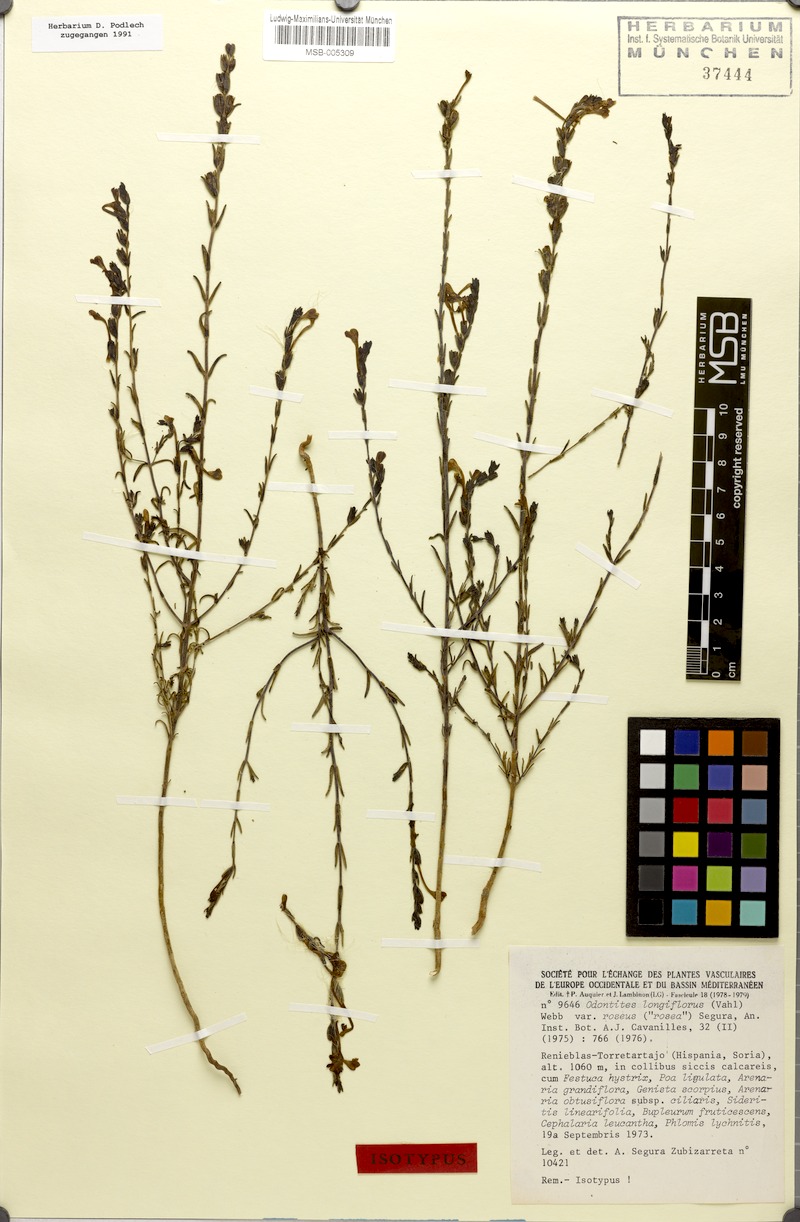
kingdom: Plantae
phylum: Tracheophyta
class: Magnoliopsida
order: Lamiales
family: Orobanchaceae
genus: Odontites
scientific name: Odontites longiflorus
